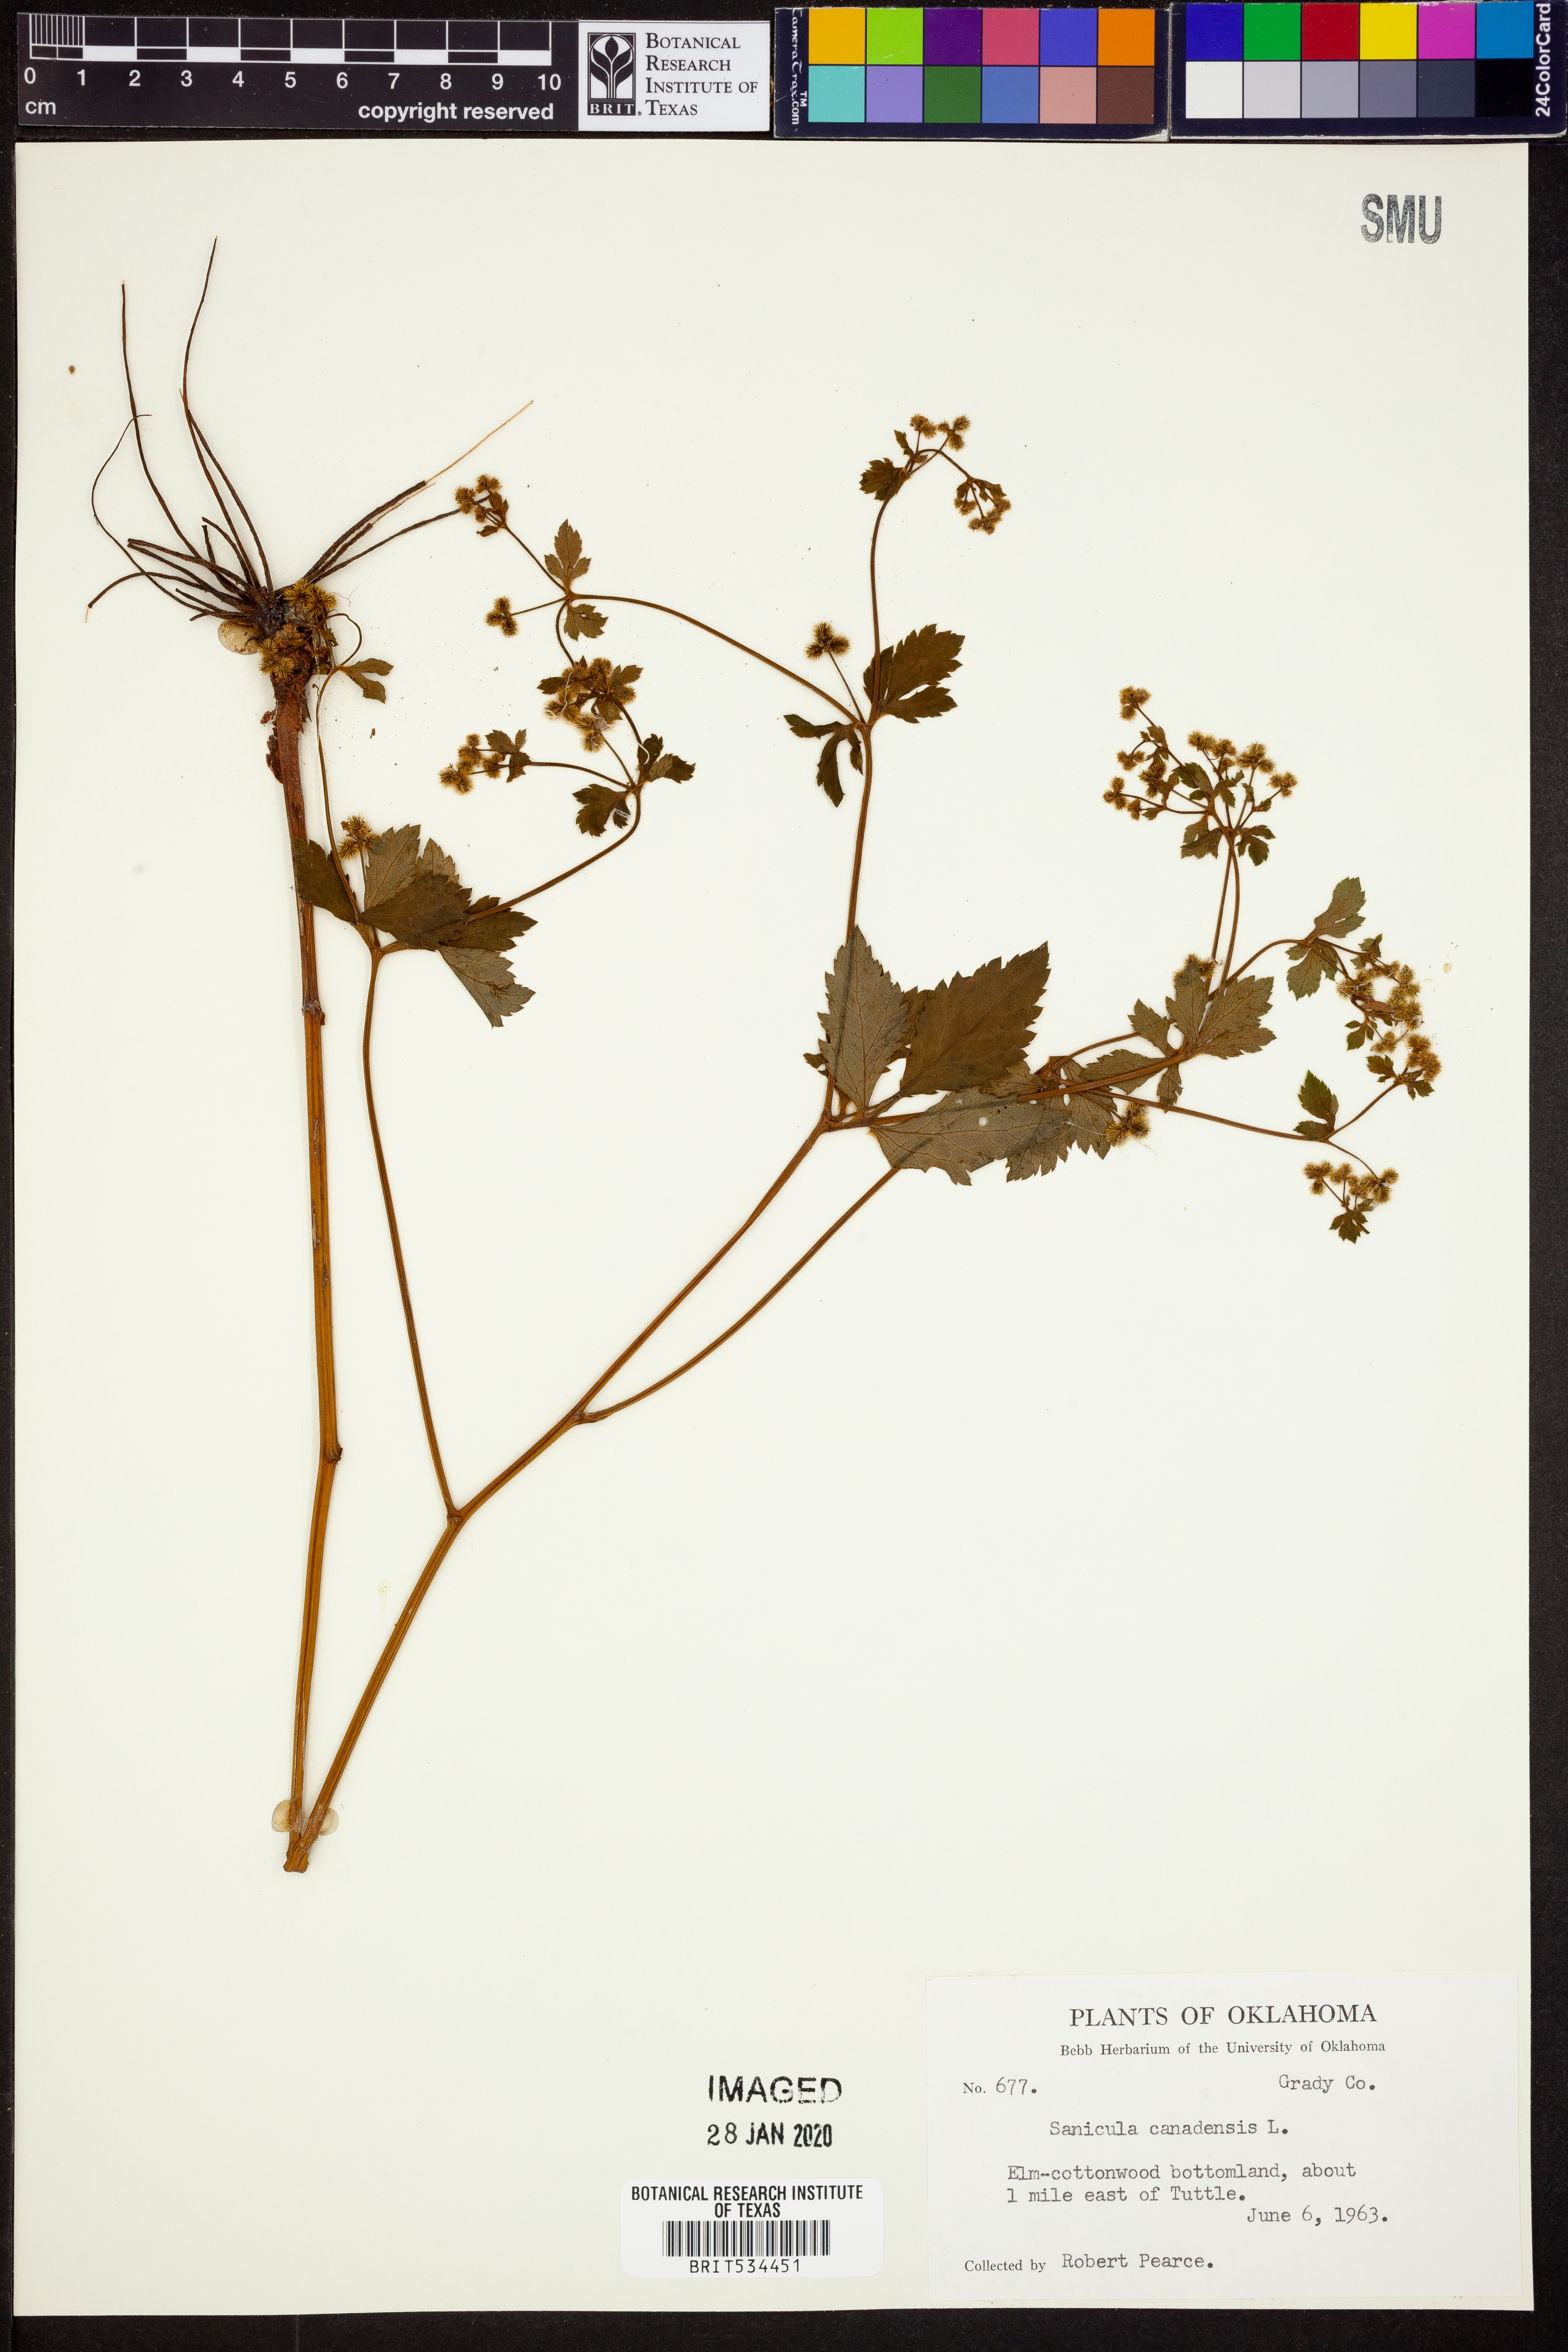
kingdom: Plantae
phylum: Tracheophyta
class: Magnoliopsida
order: Apiales
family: Apiaceae
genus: Sanicula
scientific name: Sanicula canadensis
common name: Canada sanicle
